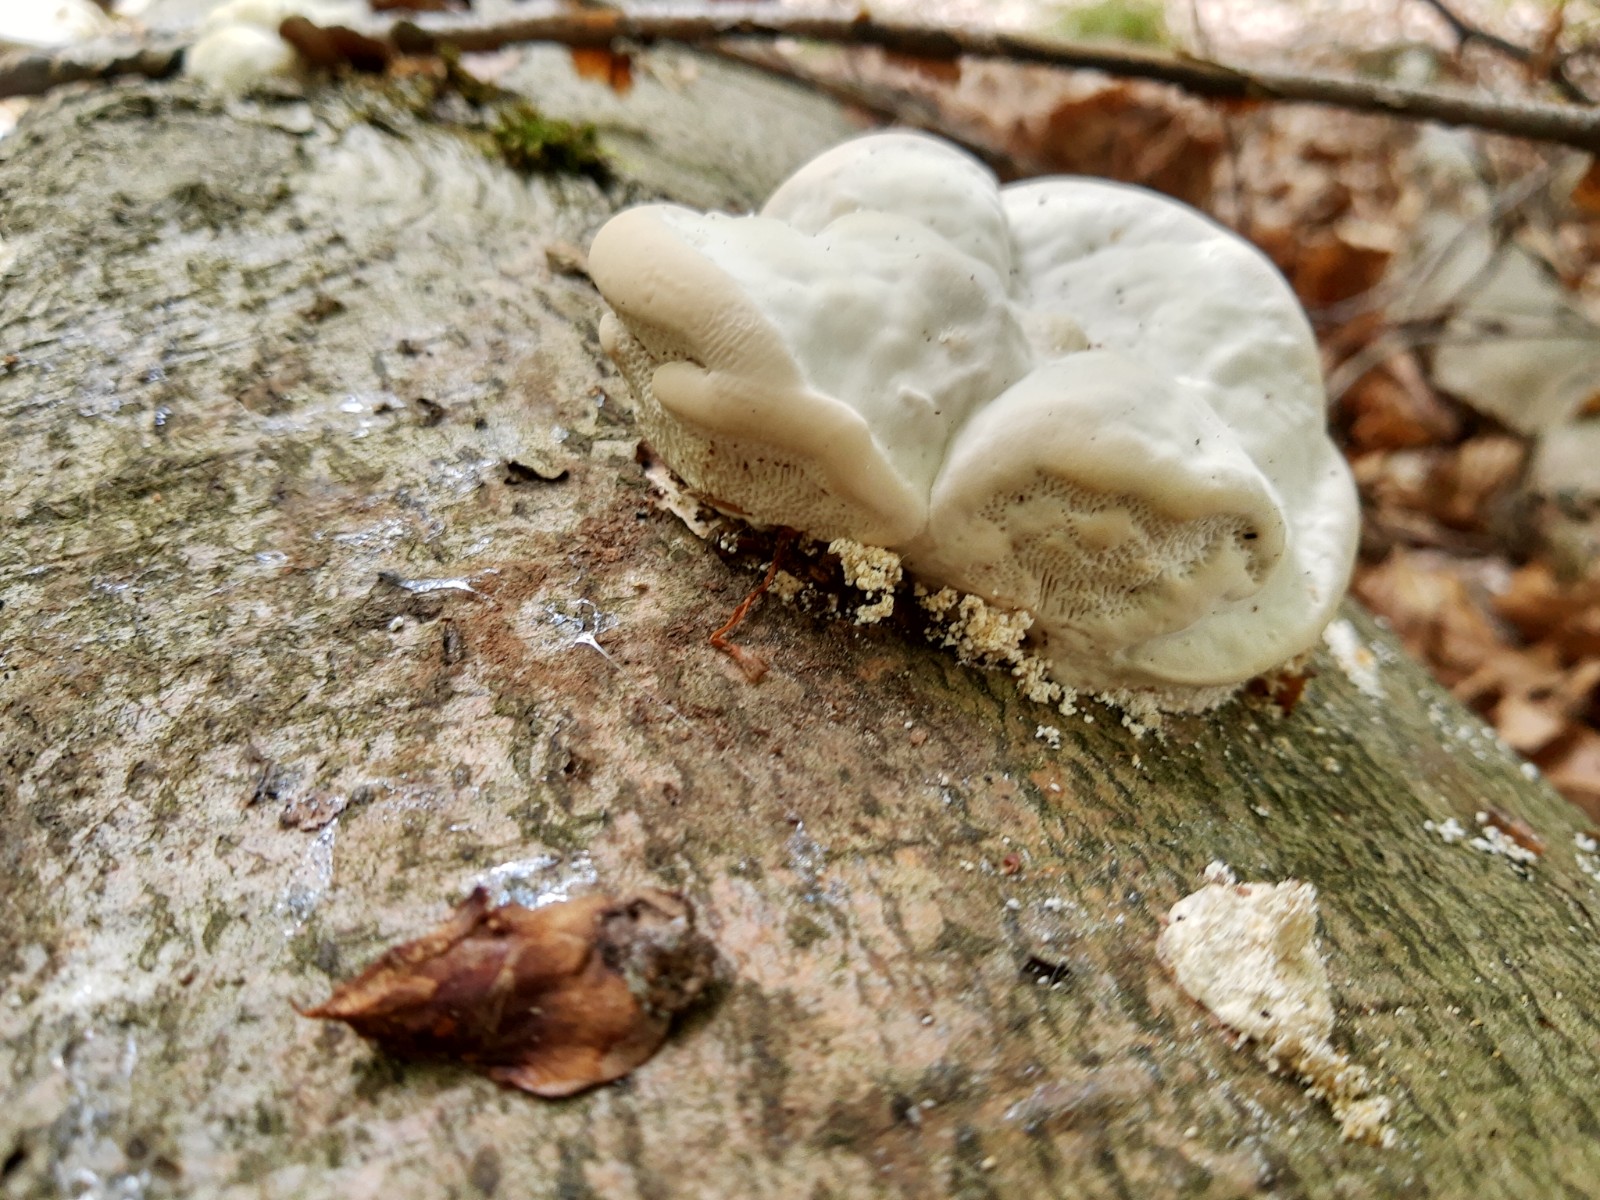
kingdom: Fungi
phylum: Basidiomycota
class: Agaricomycetes
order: Polyporales
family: Polyporaceae
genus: Trametes
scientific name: Trametes gibbosa
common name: puklet læderporesvamp
